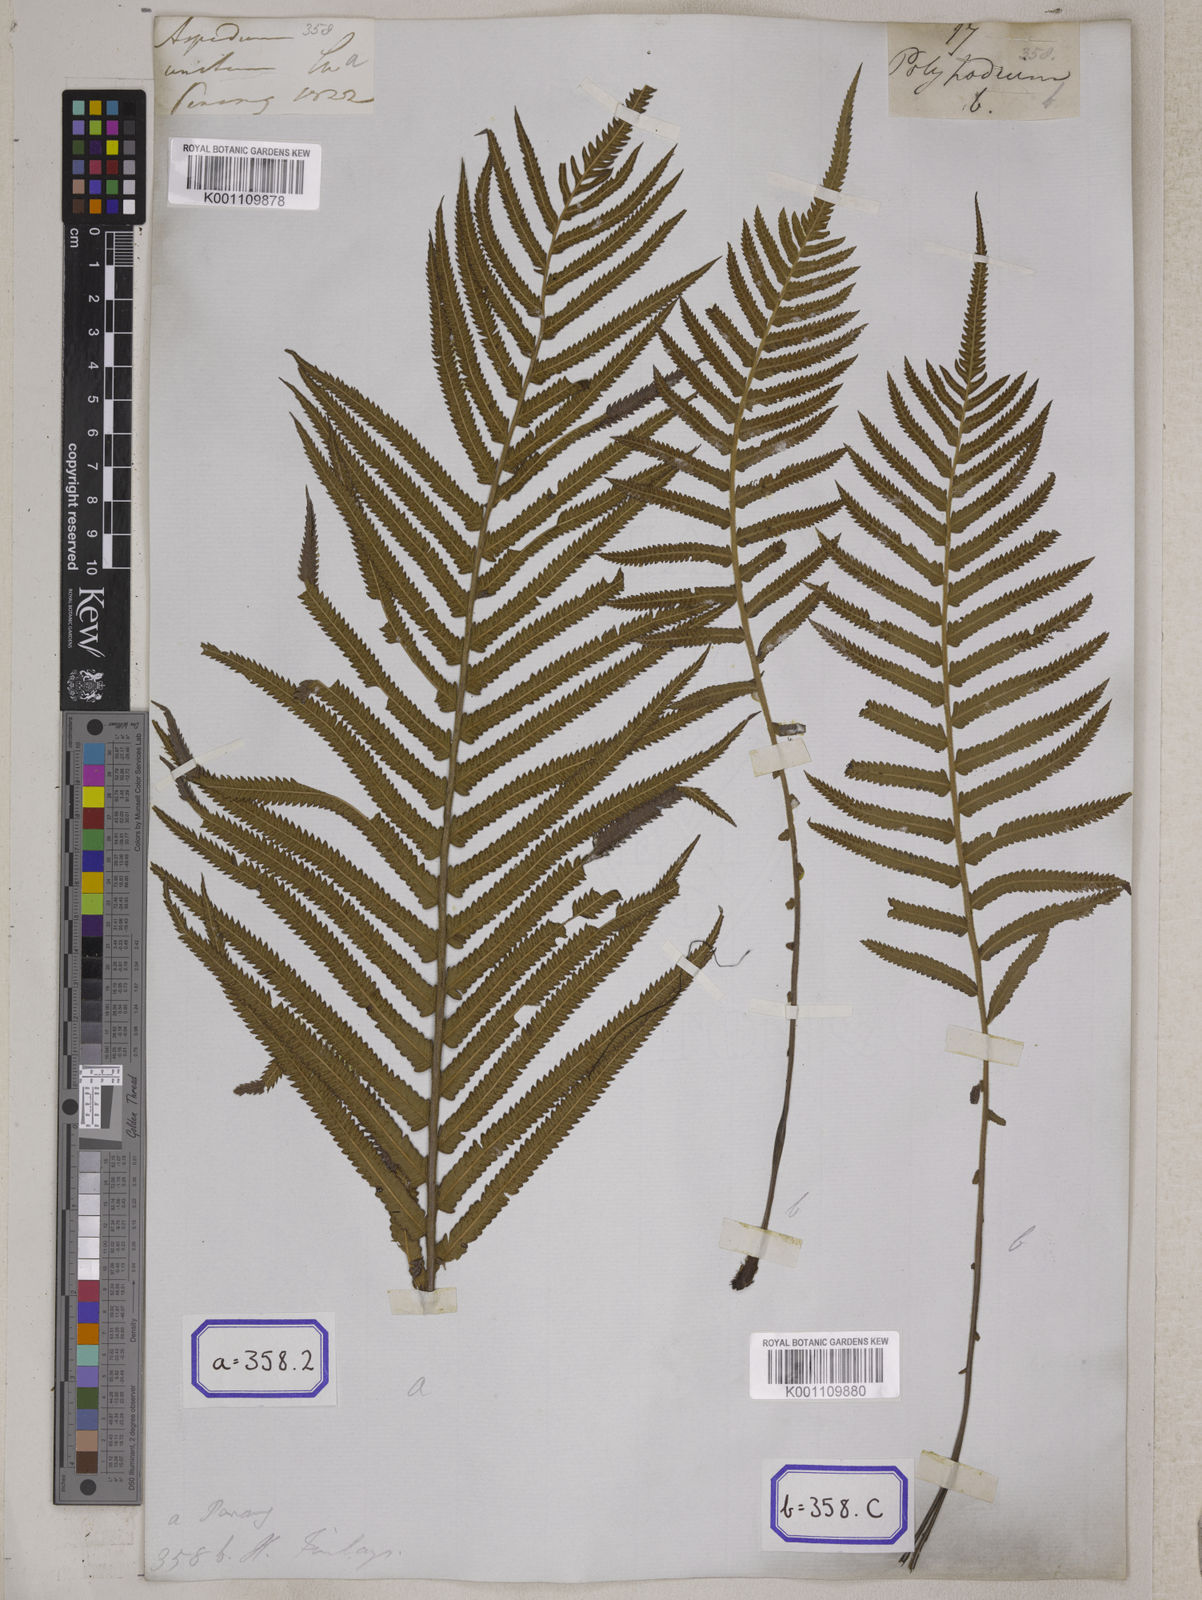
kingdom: Plantae
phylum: Tracheophyta
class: Polypodiopsida
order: Polypodiales
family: Thelypteridaceae
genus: Cyclosorus
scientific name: Cyclosorus interruptus
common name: Neke fern
